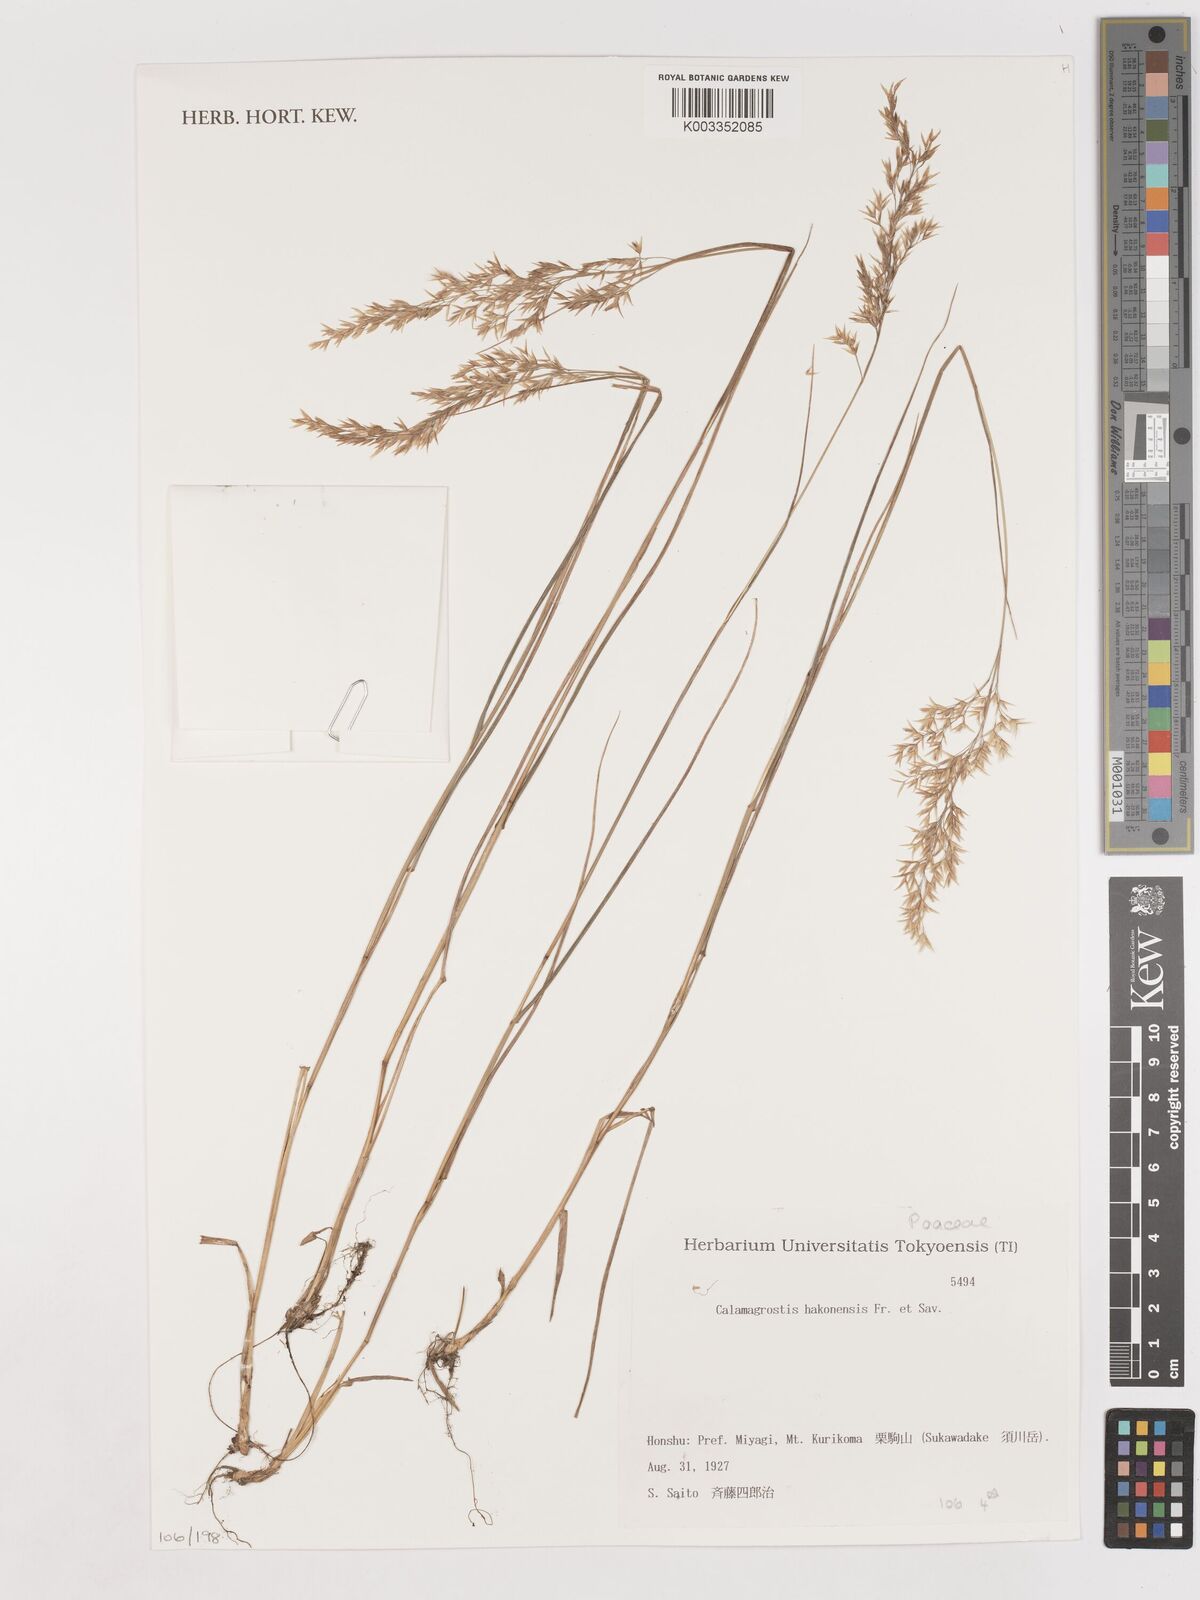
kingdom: Plantae
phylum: Tracheophyta
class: Liliopsida
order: Poales
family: Poaceae
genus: Calamagrostis
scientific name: Calamagrostis hakonensis
